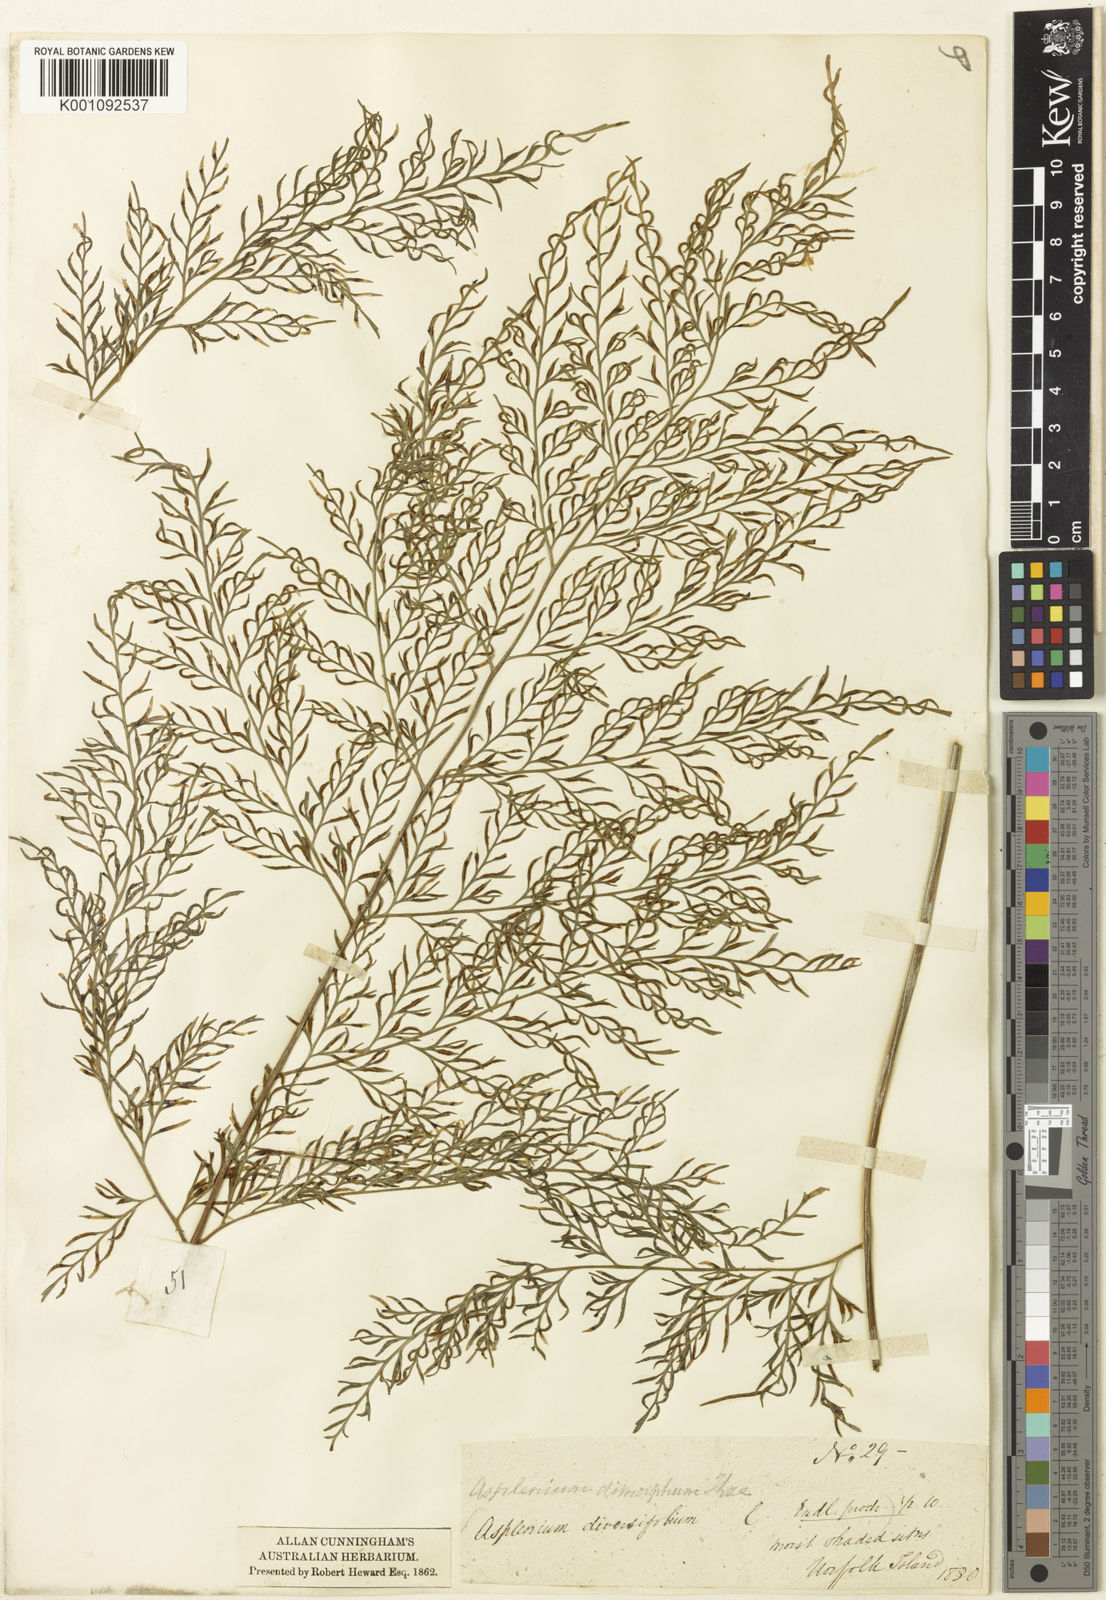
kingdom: Plantae
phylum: Tracheophyta
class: Polypodiopsida
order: Polypodiales
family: Aspleniaceae
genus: Asplenium
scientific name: Asplenium dimorphum
